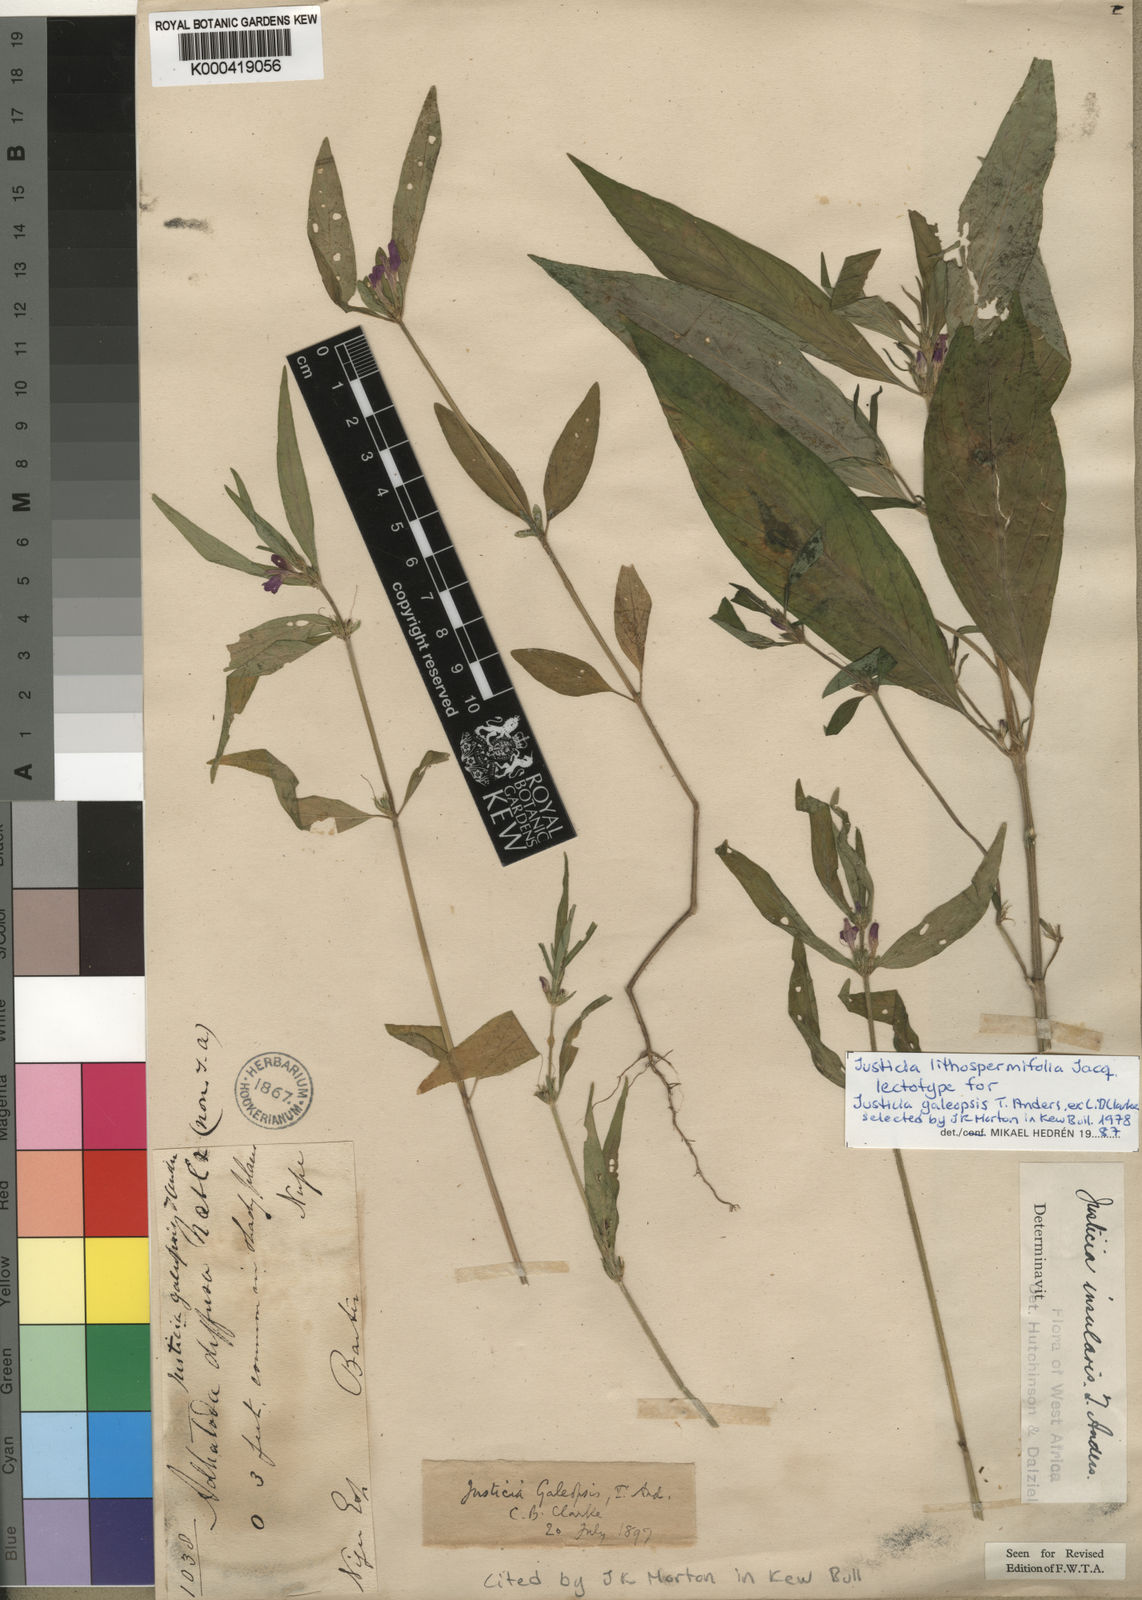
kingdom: Plantae
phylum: Tracheophyta
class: Magnoliopsida
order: Lamiales
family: Acanthaceae
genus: Justicia
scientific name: Justicia ladanoides
